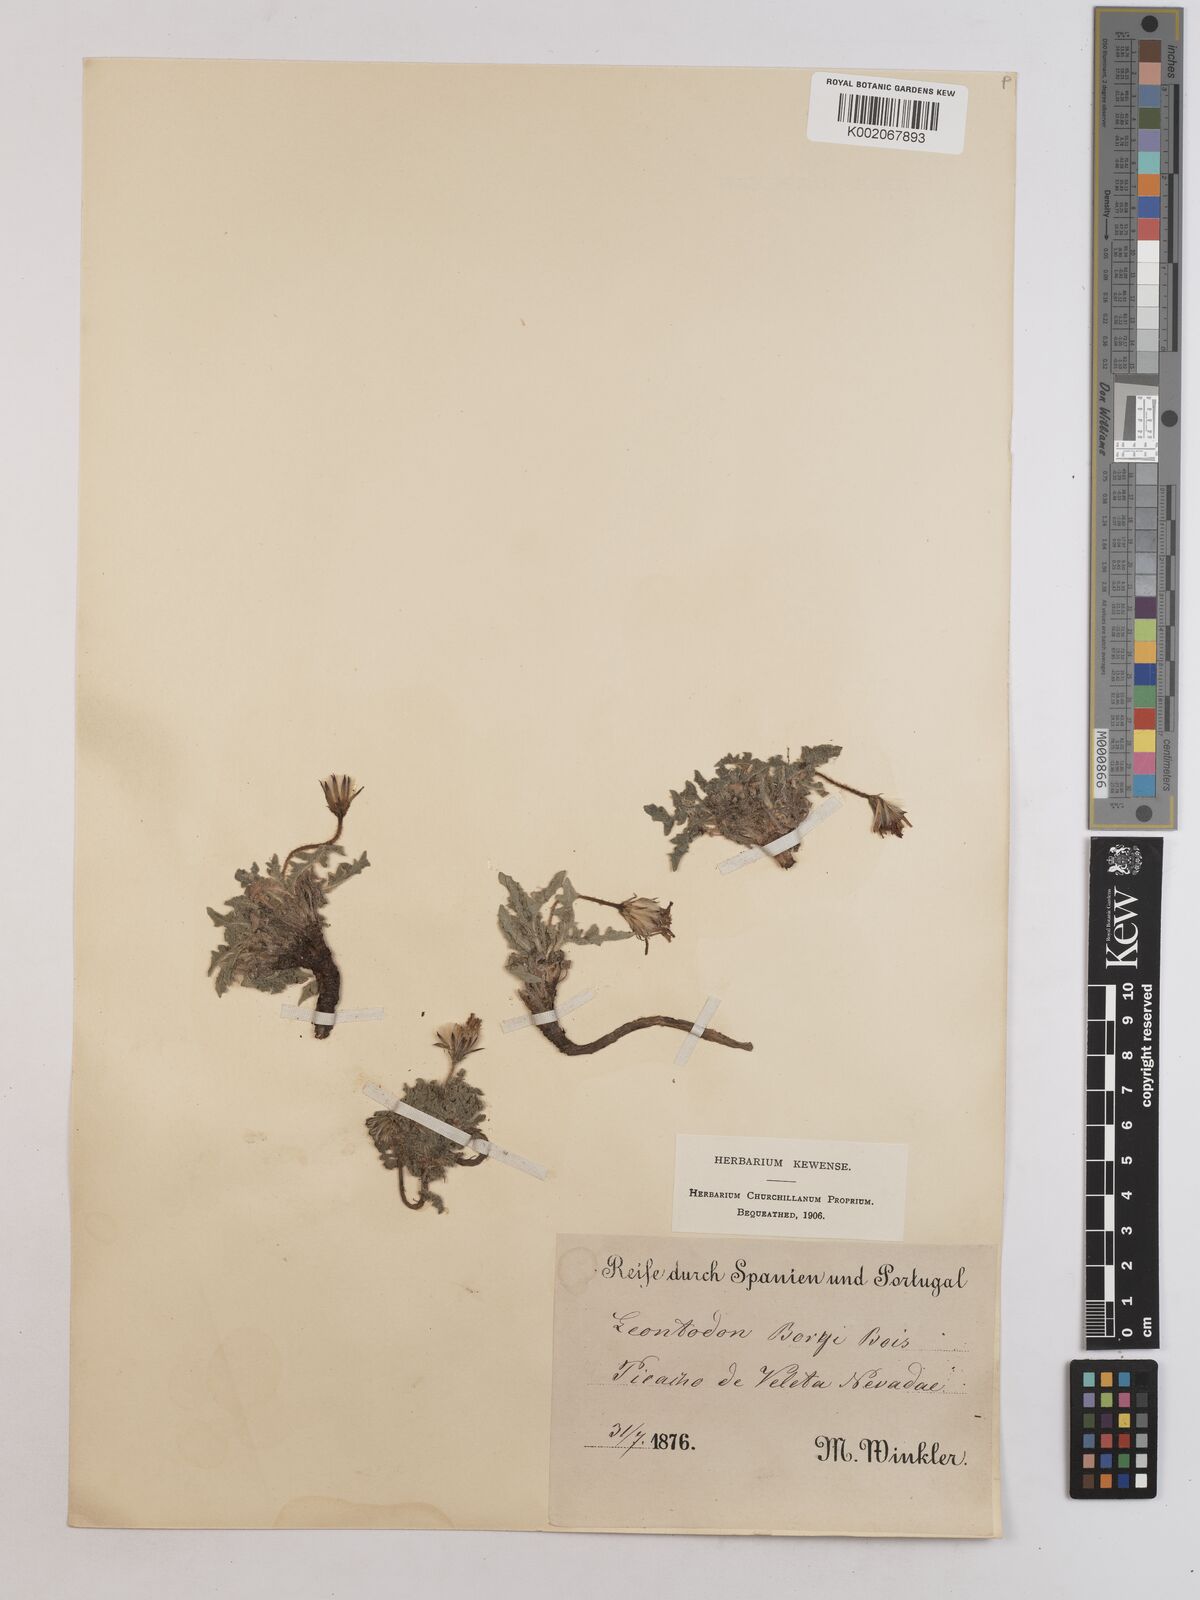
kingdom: Plantae
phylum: Tracheophyta
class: Magnoliopsida
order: Asterales
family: Asteraceae
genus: Leontodon
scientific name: Leontodon boryi
